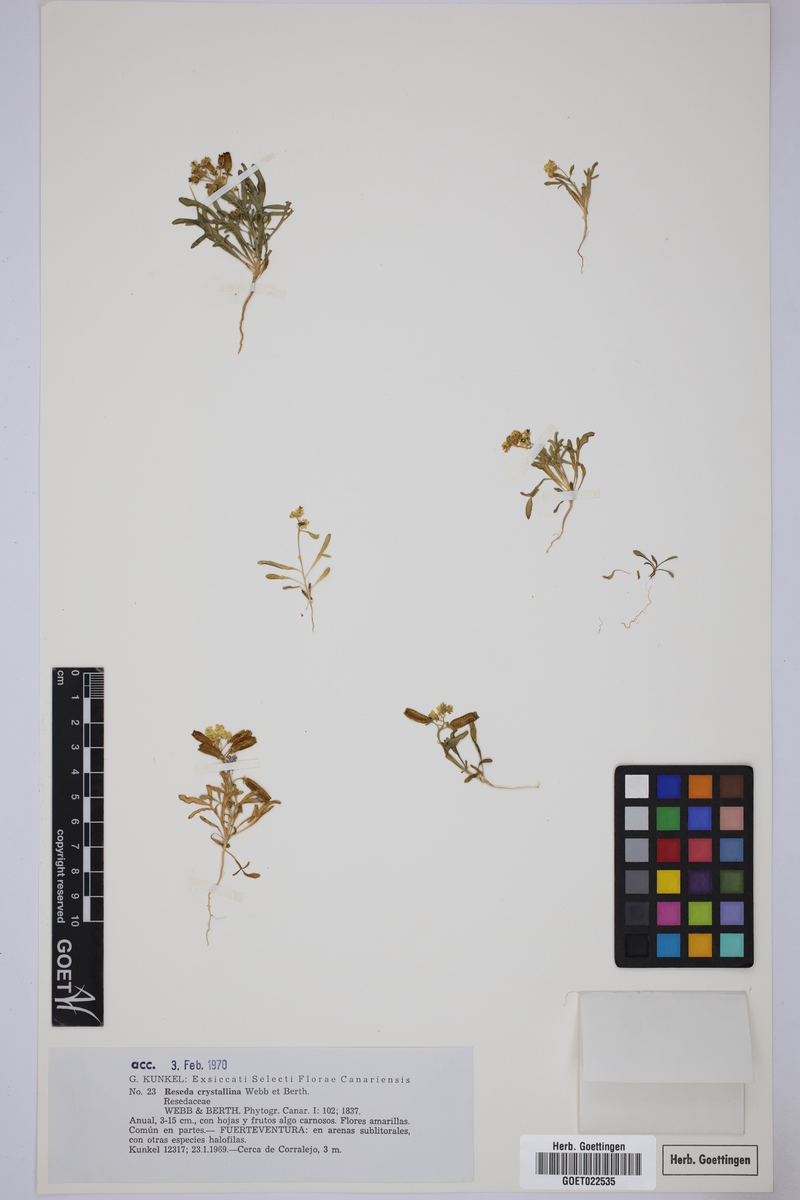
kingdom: Plantae
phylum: Tracheophyta
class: Magnoliopsida
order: Brassicales
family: Resedaceae
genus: Reseda
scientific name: Reseda crystallina
